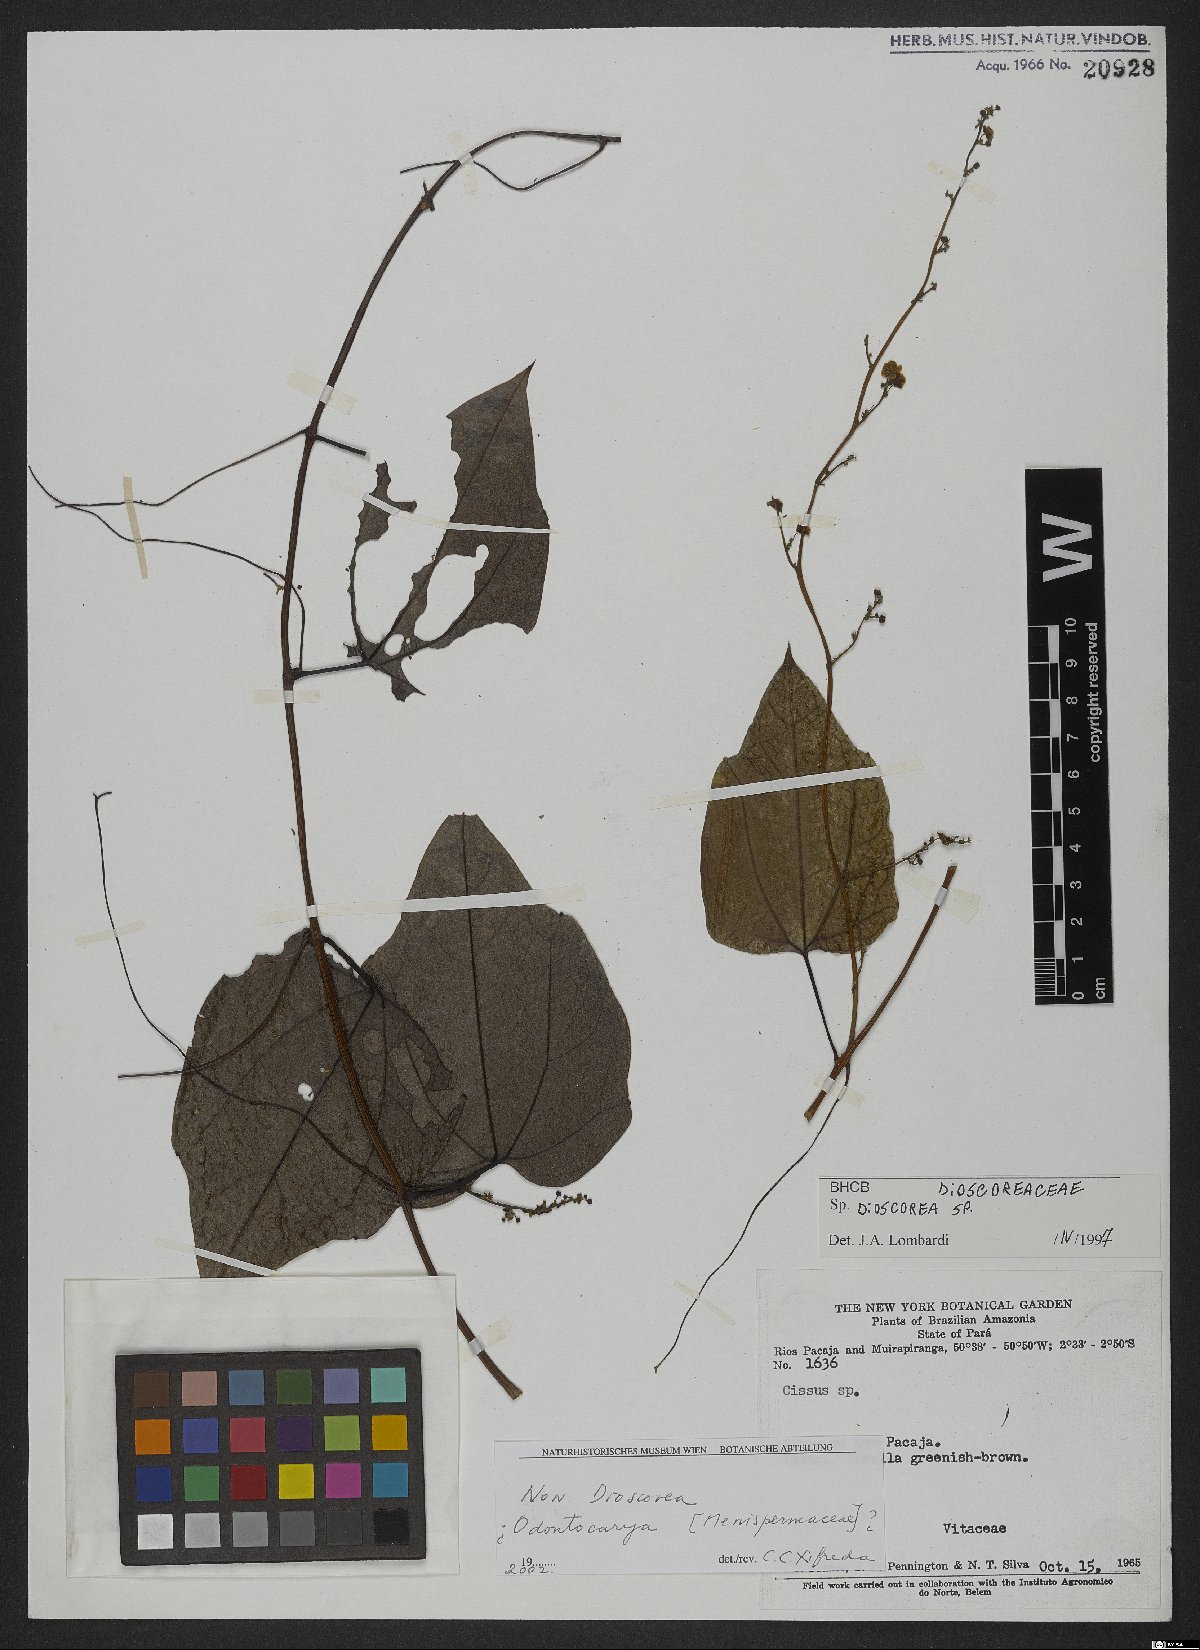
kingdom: Plantae
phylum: Tracheophyta
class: Magnoliopsida
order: Ranunculales
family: Menispermaceae
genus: Odontocarya
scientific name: Odontocarya
